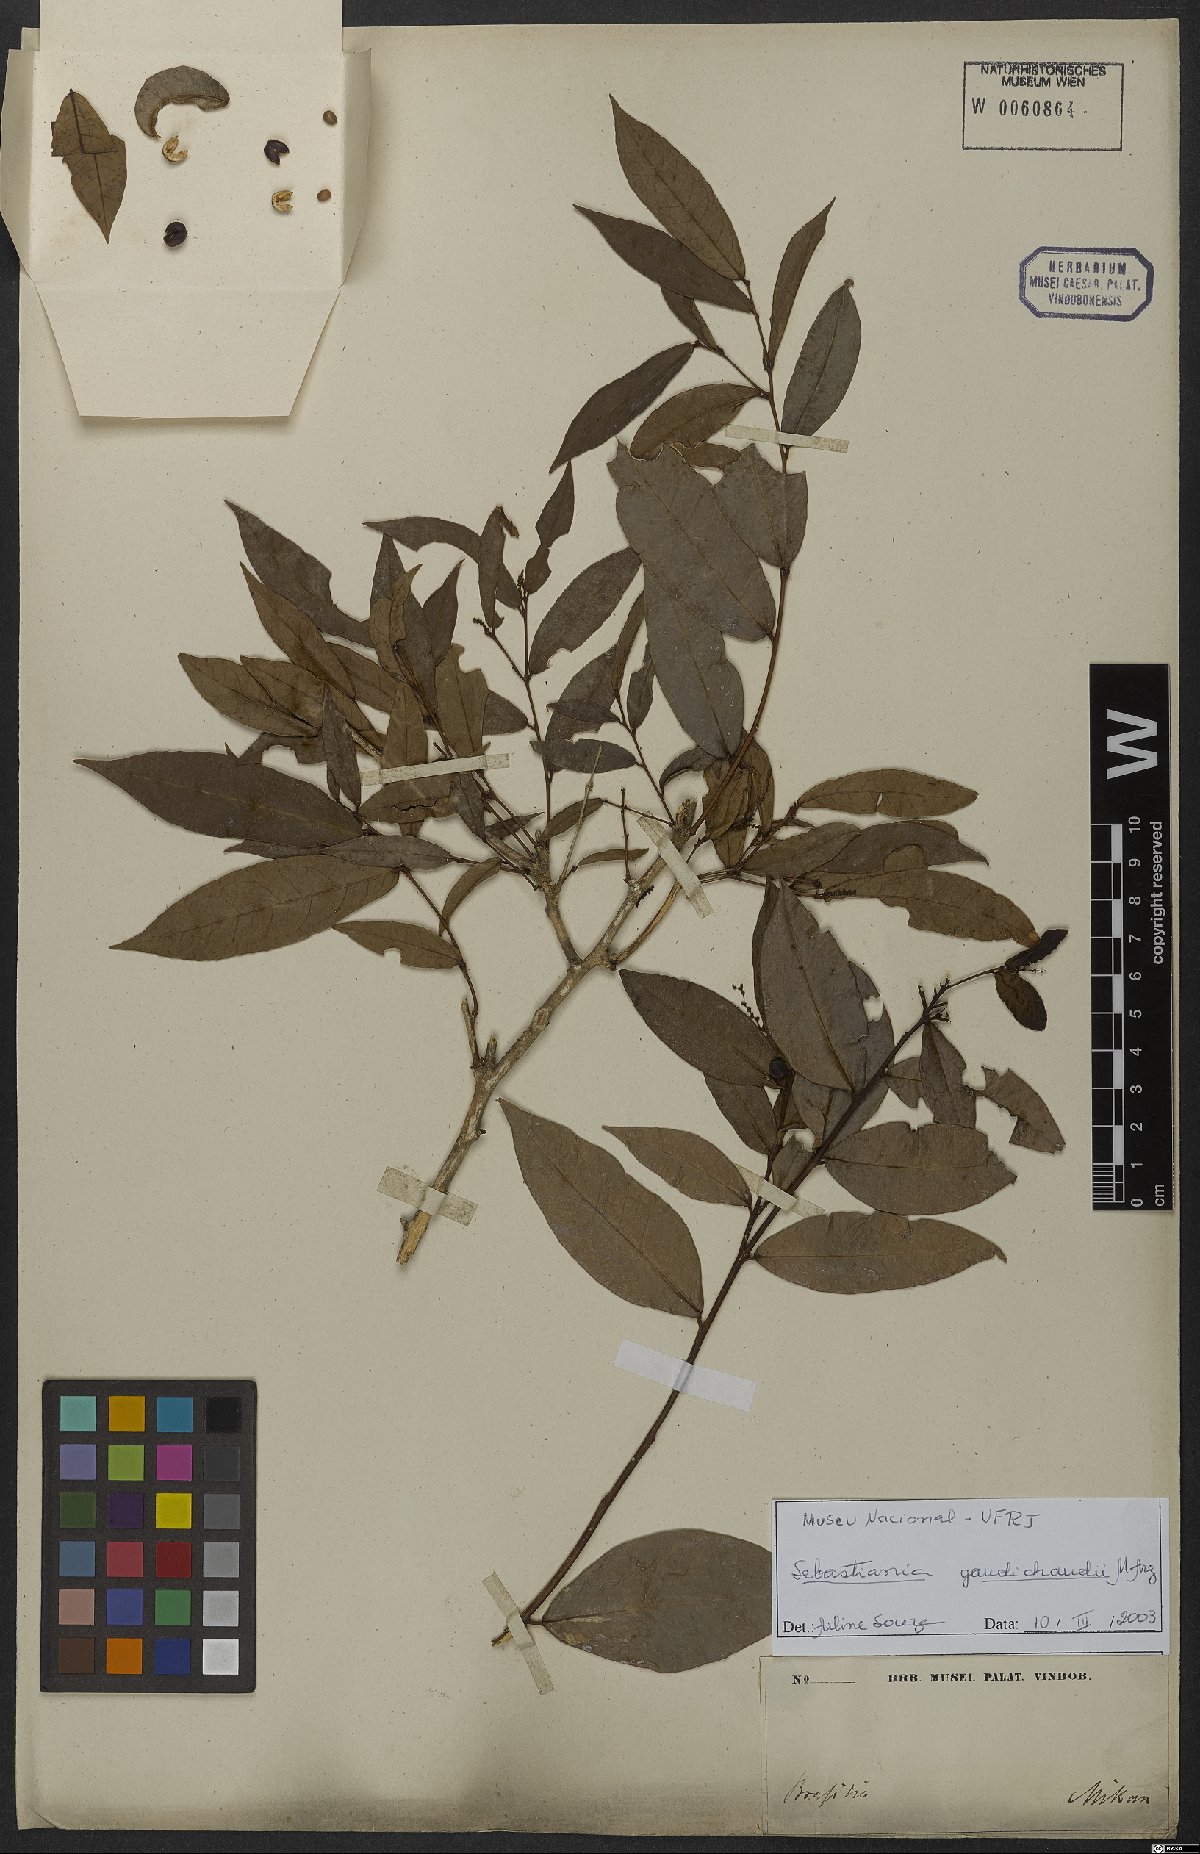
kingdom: Plantae
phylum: Tracheophyta
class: Magnoliopsida
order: Malpighiales
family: Euphorbiaceae
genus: Gymnanthes
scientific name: Gymnanthes gaudichaudii
